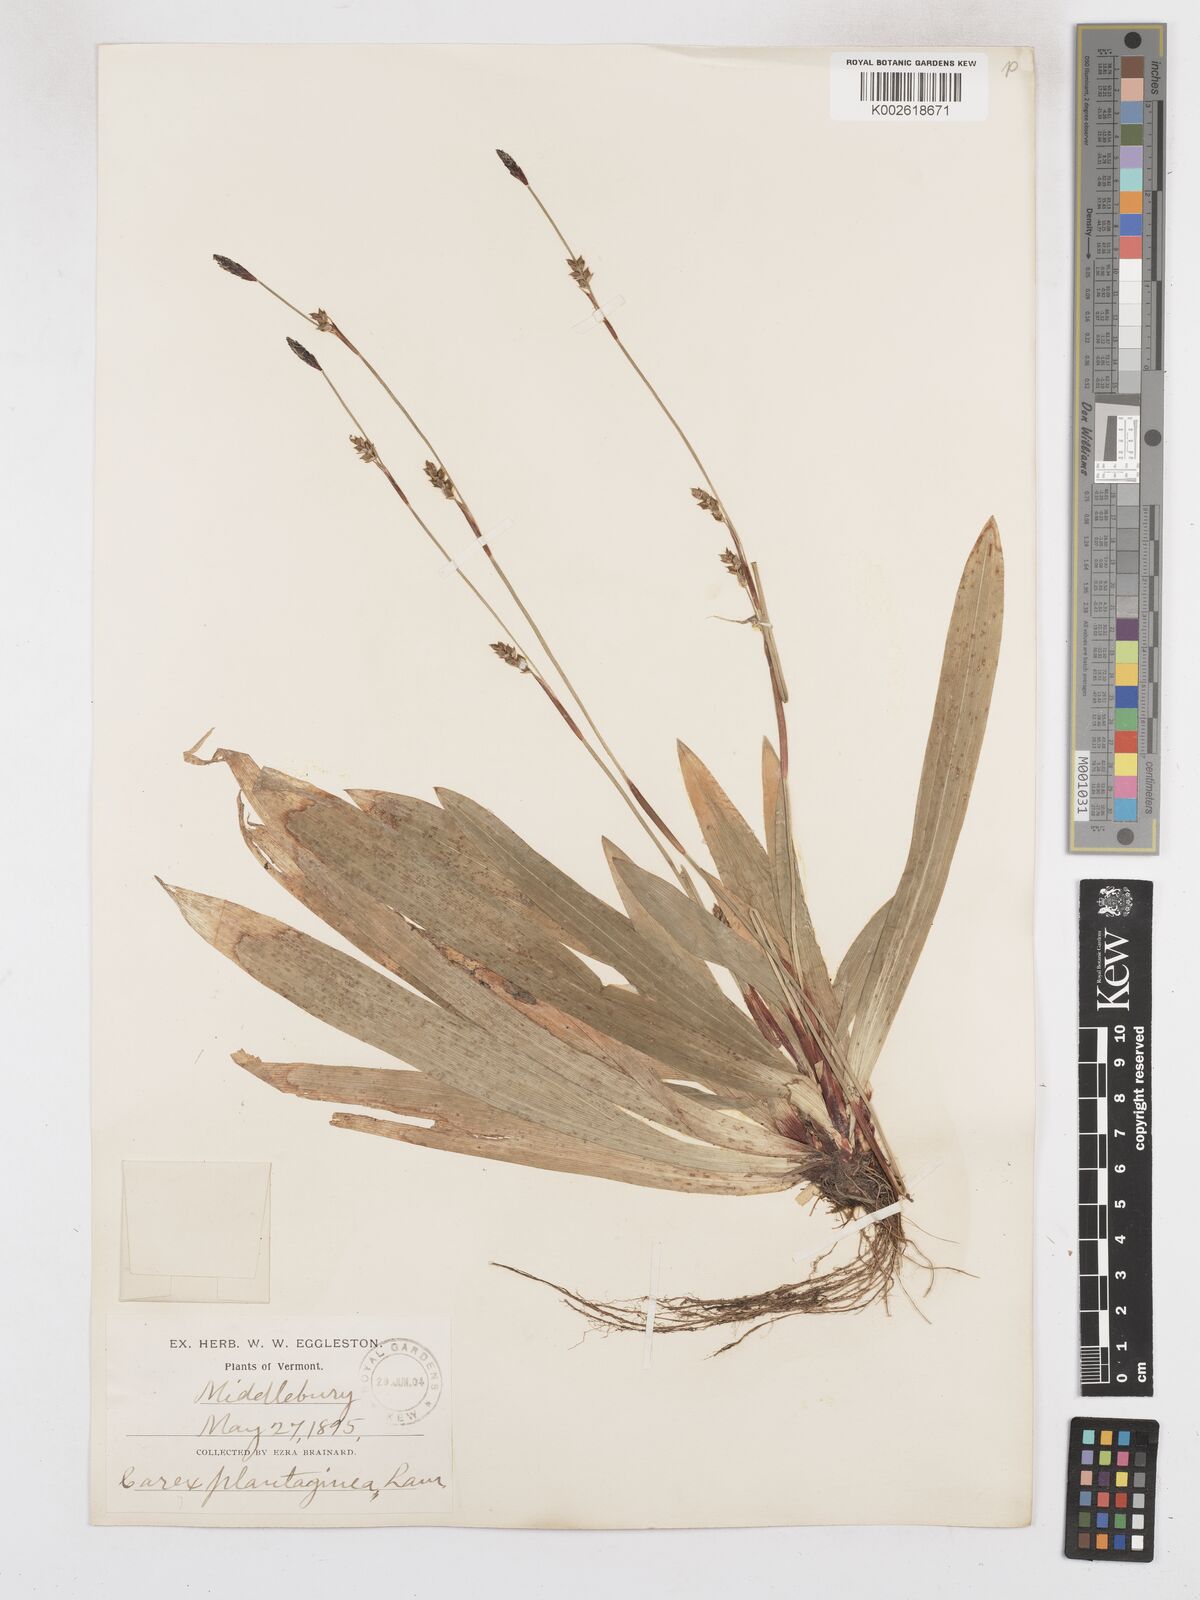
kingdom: Plantae
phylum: Tracheophyta
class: Liliopsida
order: Poales
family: Cyperaceae
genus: Carex
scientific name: Carex plantaginea
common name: Plantain-leaved sedge
